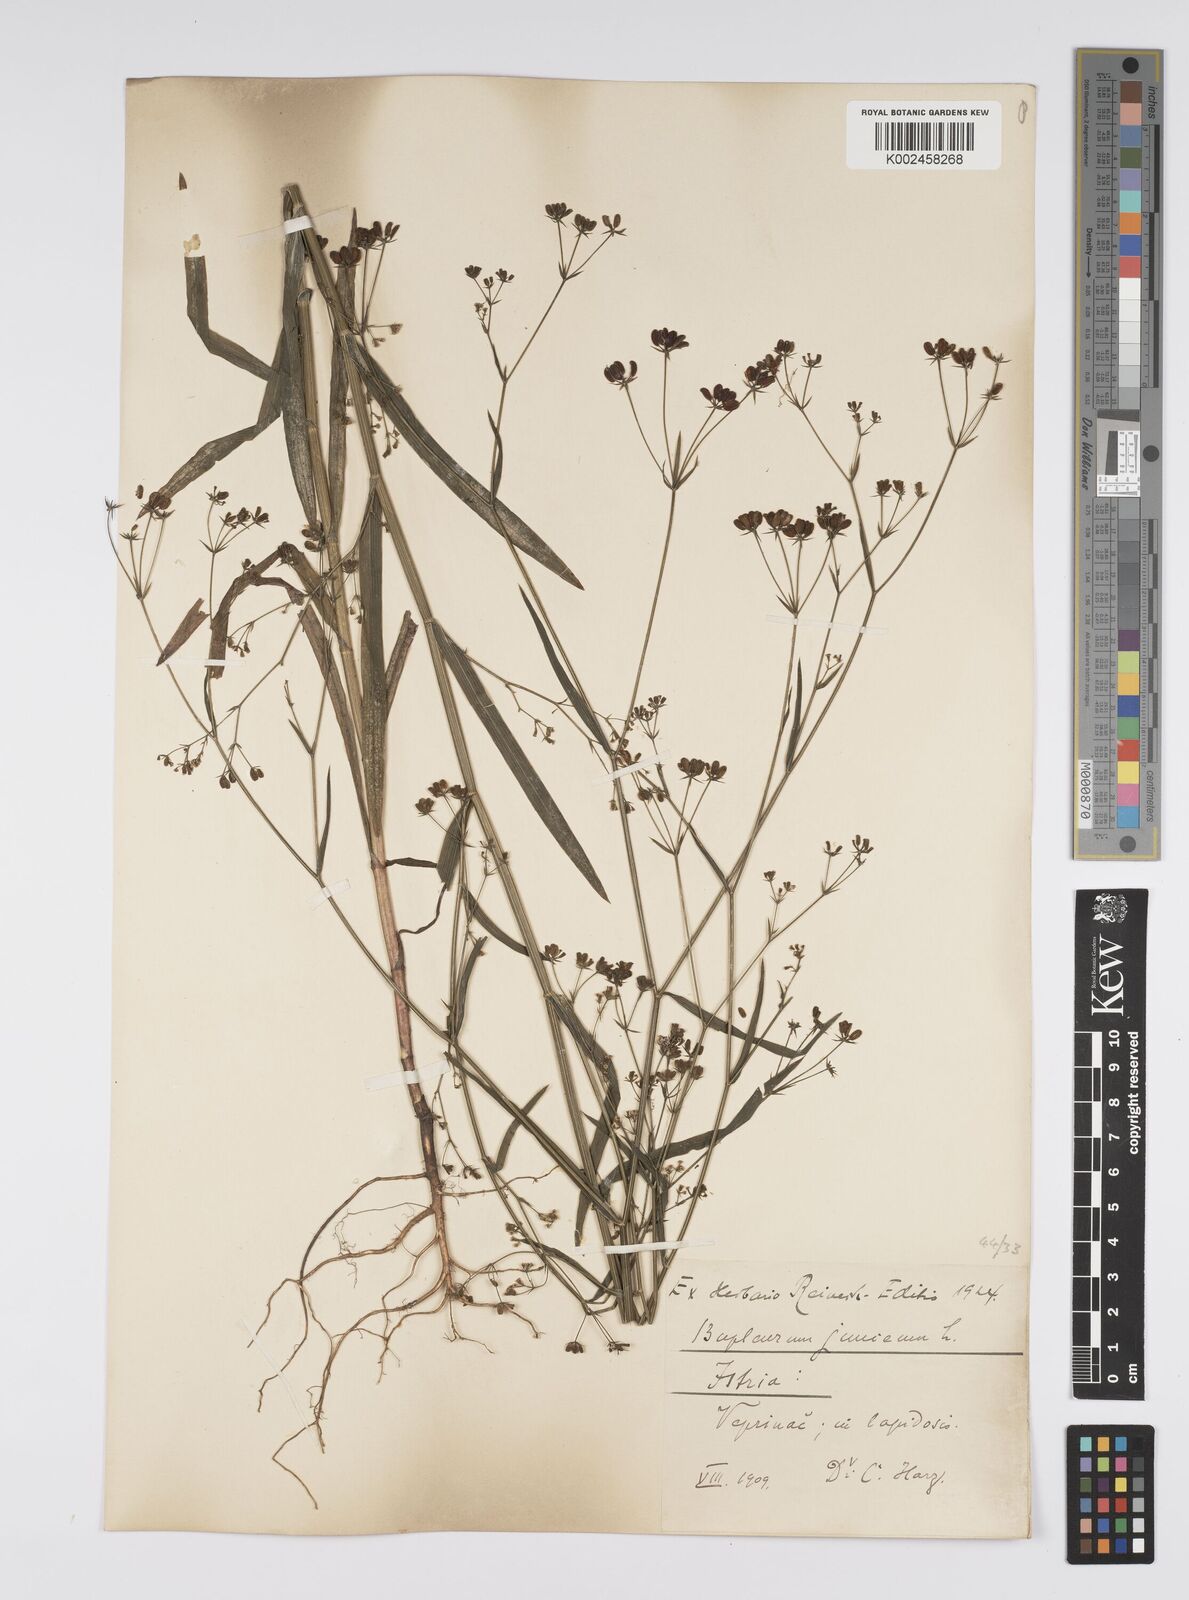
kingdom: Plantae
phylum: Tracheophyta
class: Magnoliopsida
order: Apiales
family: Apiaceae
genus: Bupleurum
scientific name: Bupleurum praealtum
